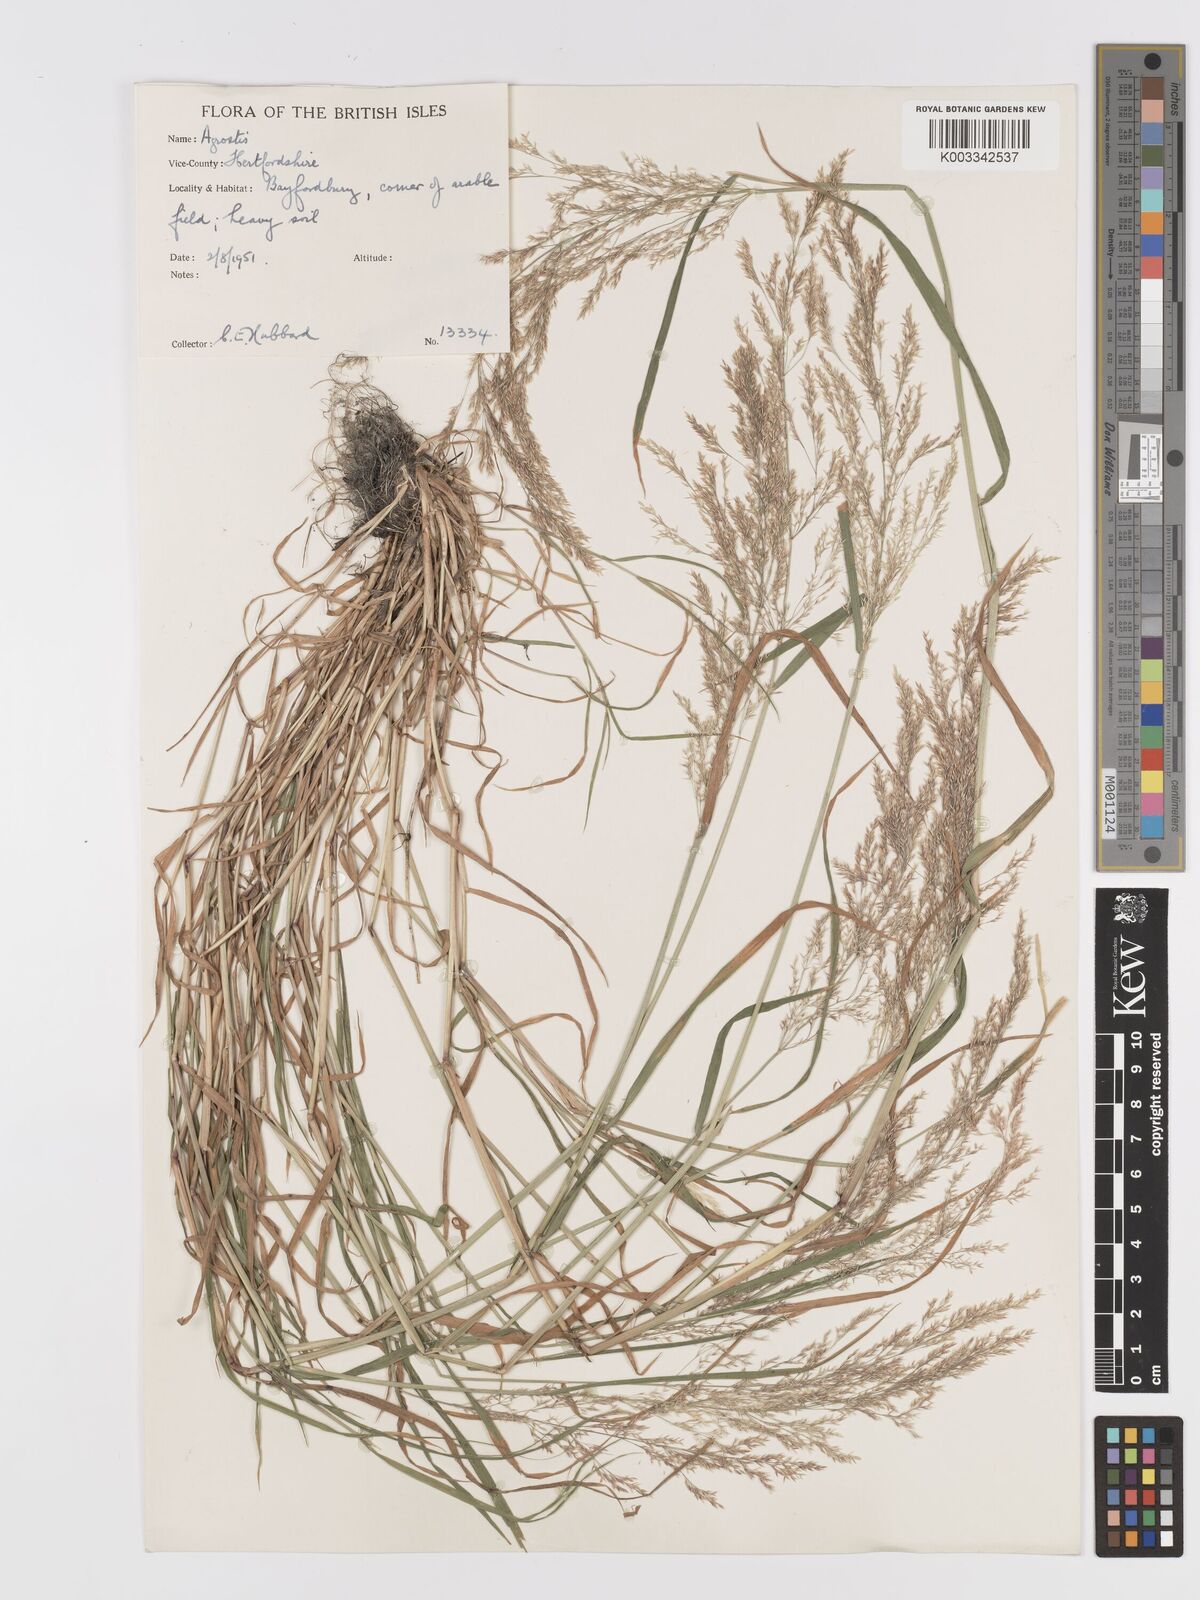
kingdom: Plantae
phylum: Tracheophyta
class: Liliopsida
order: Poales
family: Poaceae
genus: Agrostis
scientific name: Agrostis
